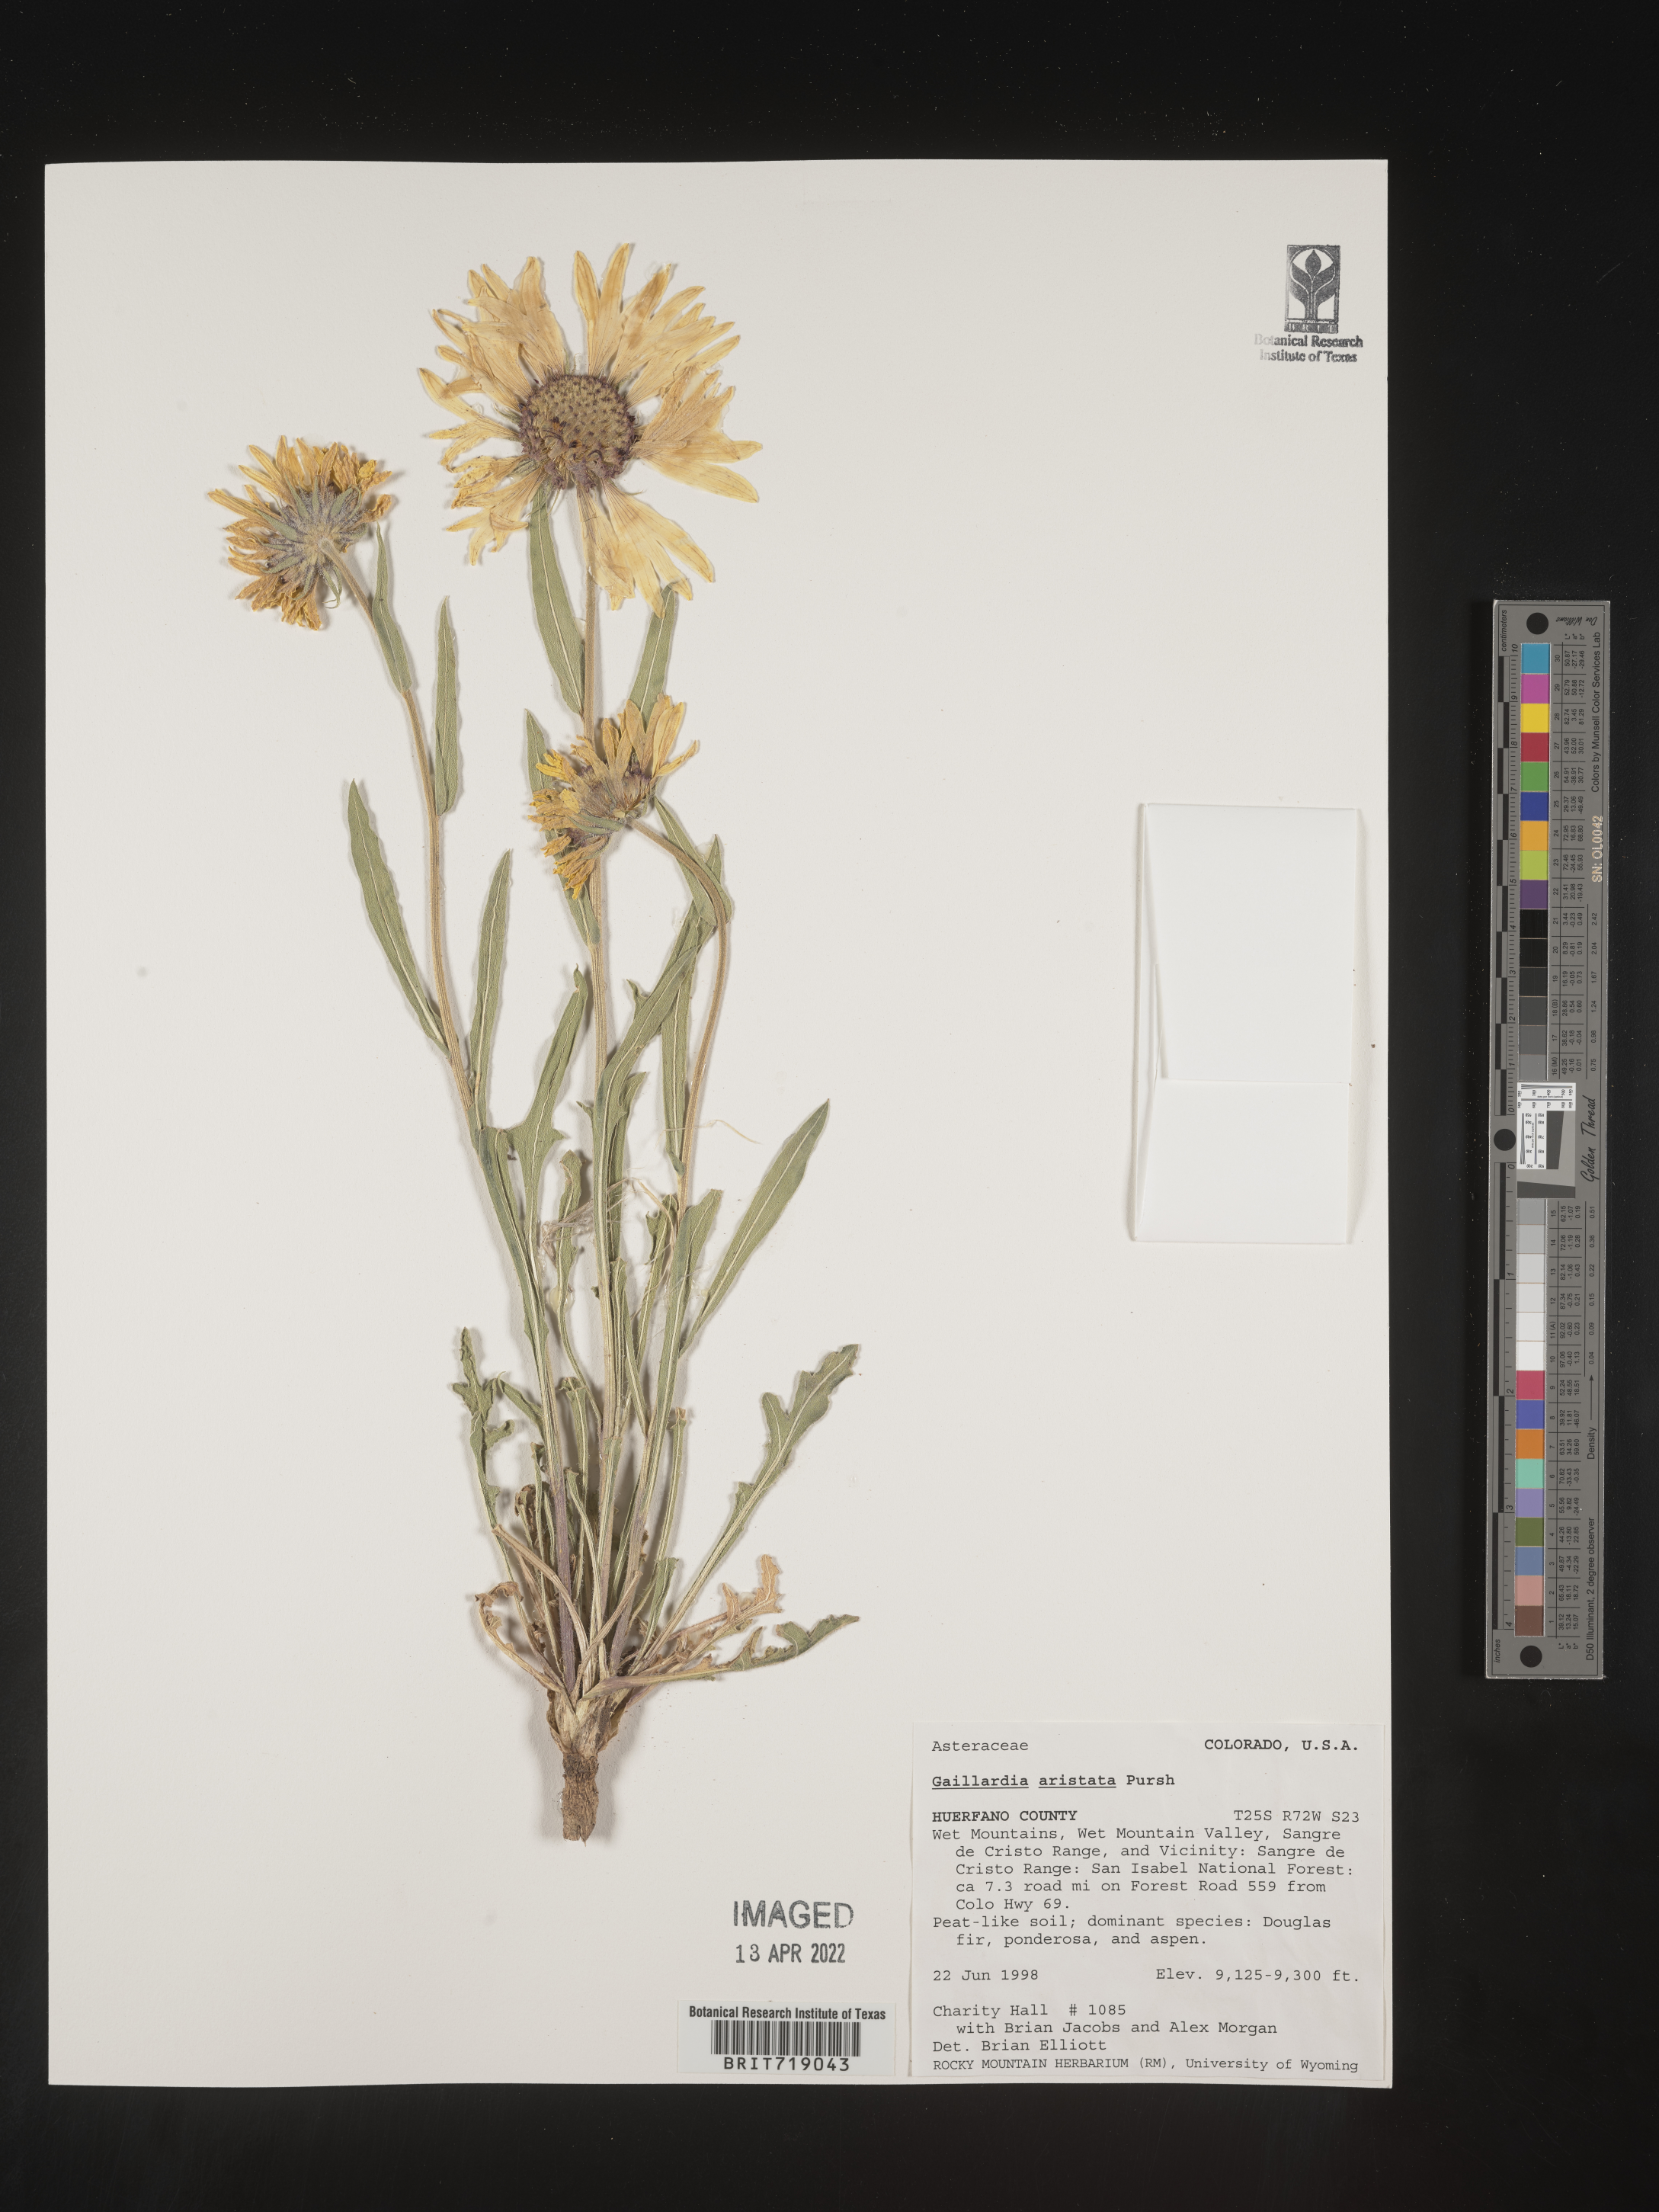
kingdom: Plantae
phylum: Tracheophyta
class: Magnoliopsida
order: Asterales
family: Asteraceae
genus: Gaillardia
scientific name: Gaillardia aristata
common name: Blanket-flower
